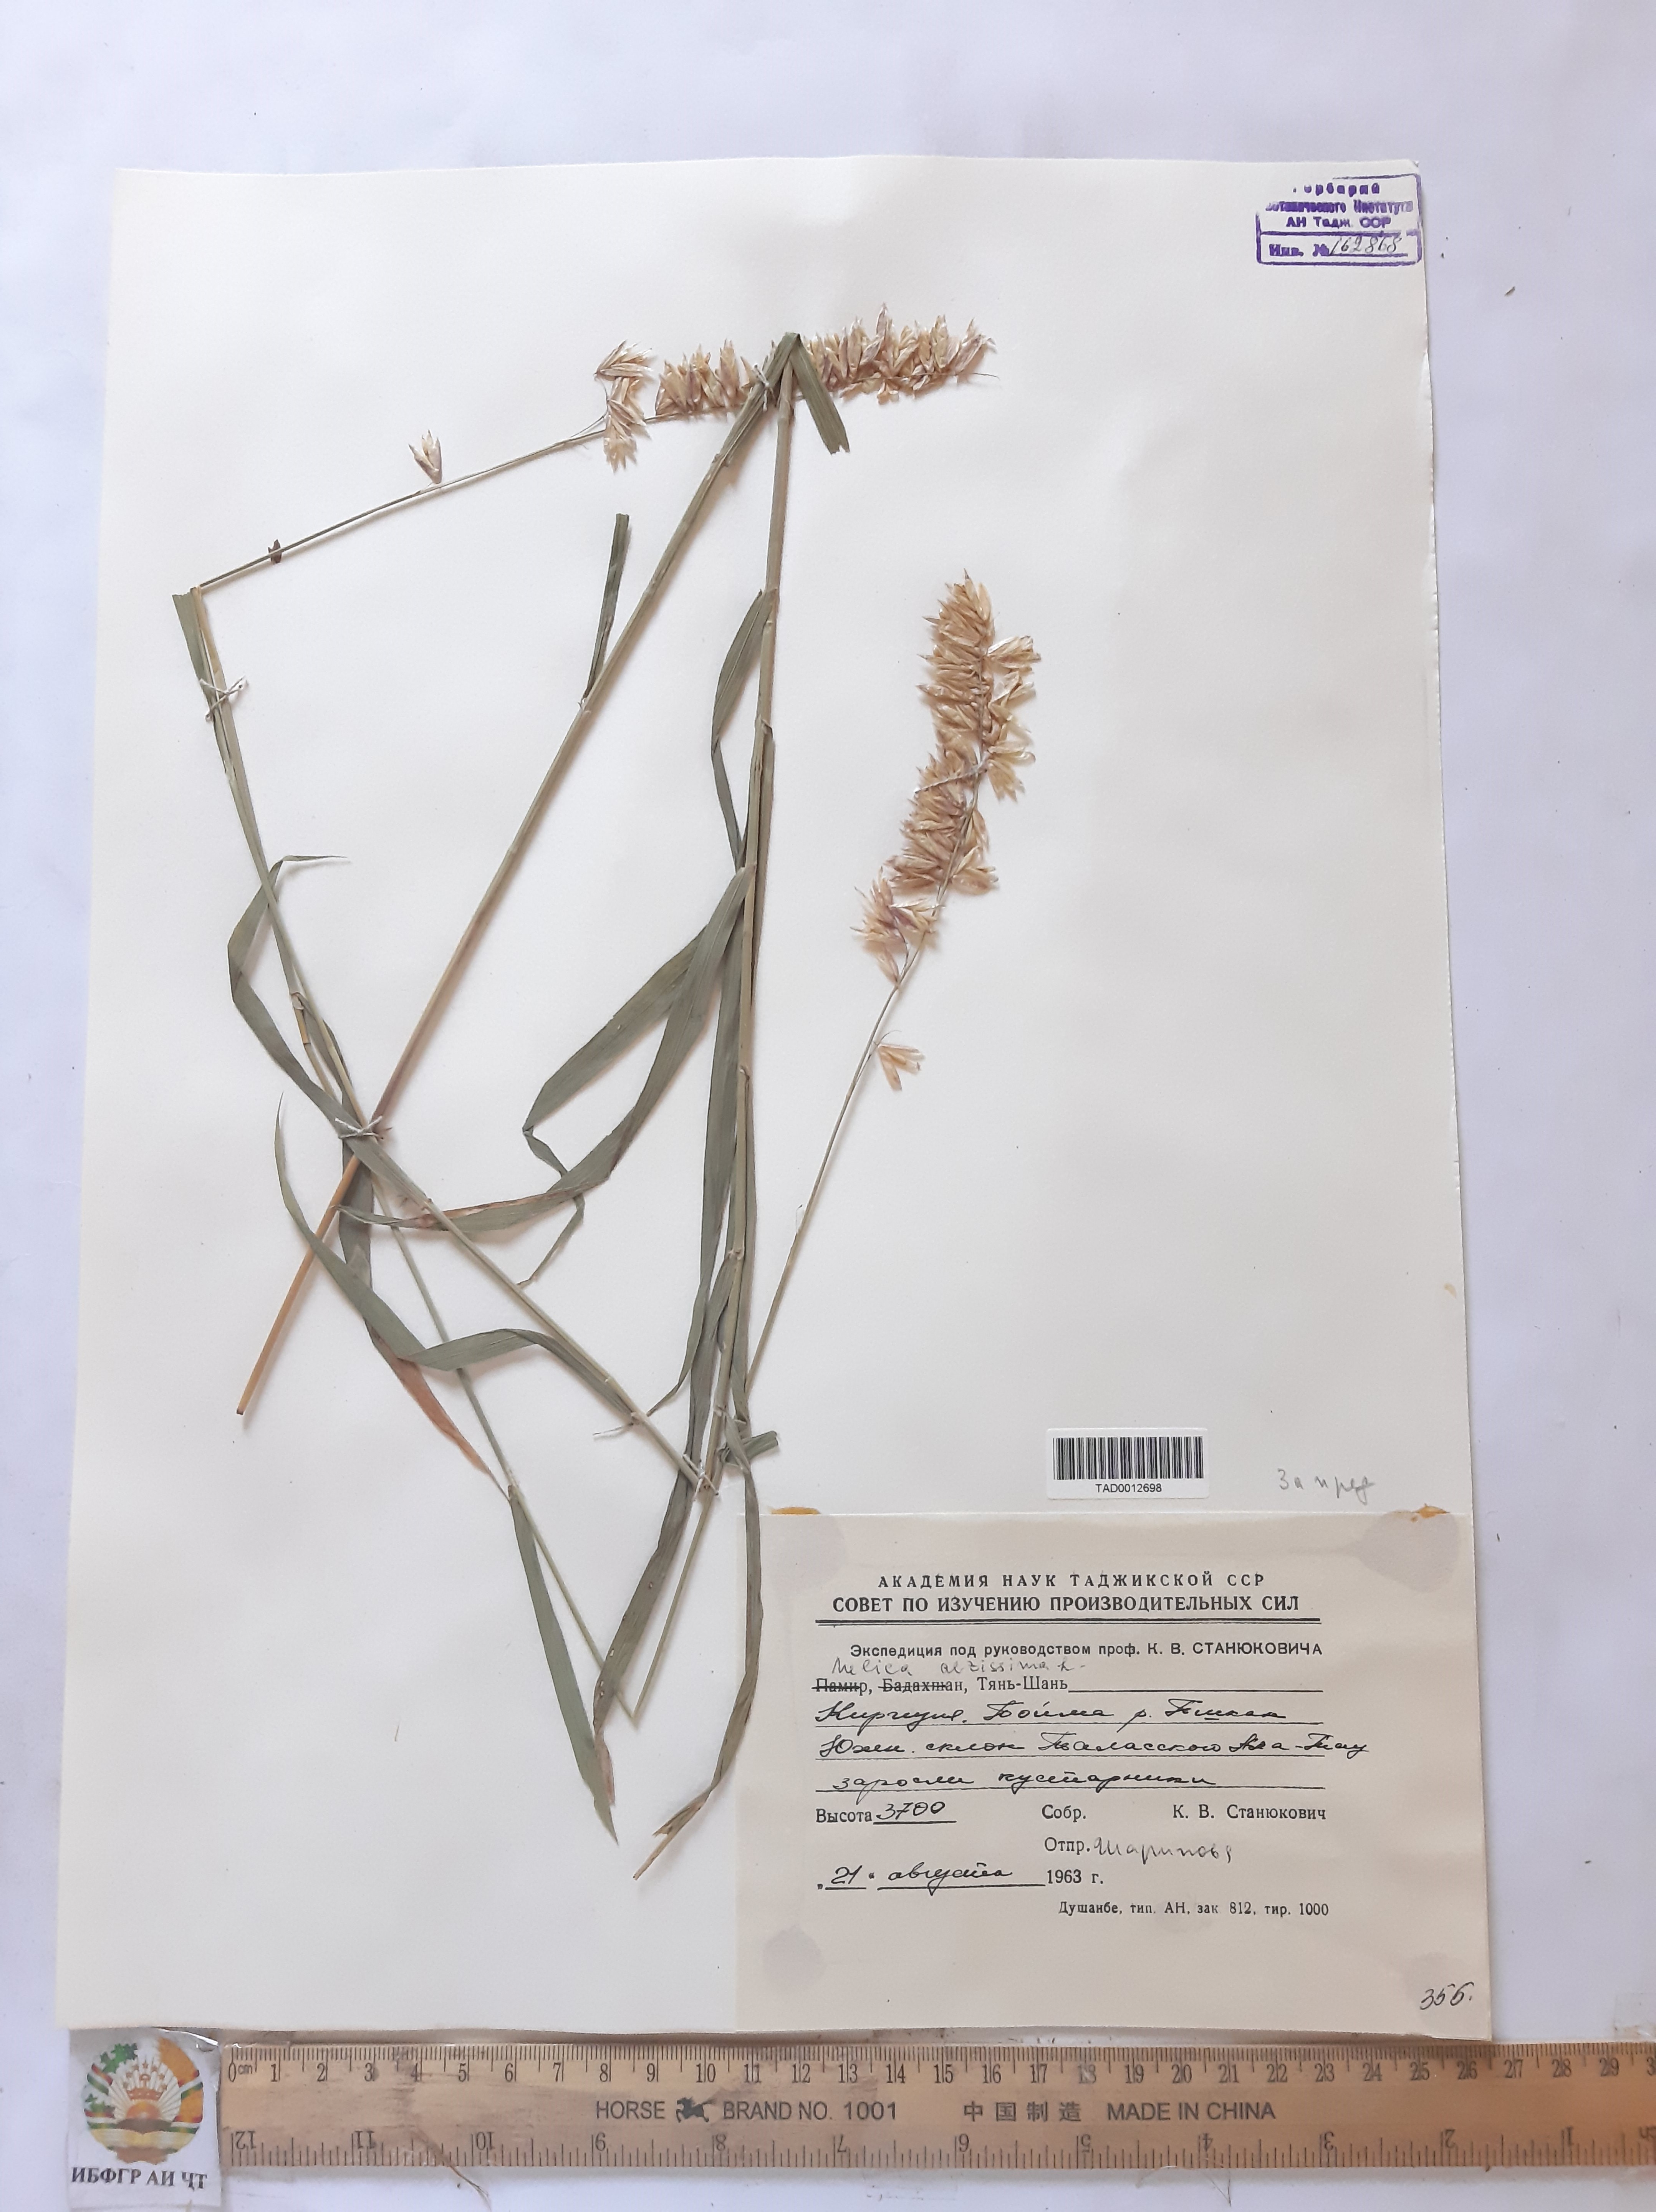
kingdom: Plantae
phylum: Tracheophyta
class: Liliopsida
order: Poales
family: Poaceae
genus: Melica
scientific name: Melica altissima
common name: Siberian melicgrass
